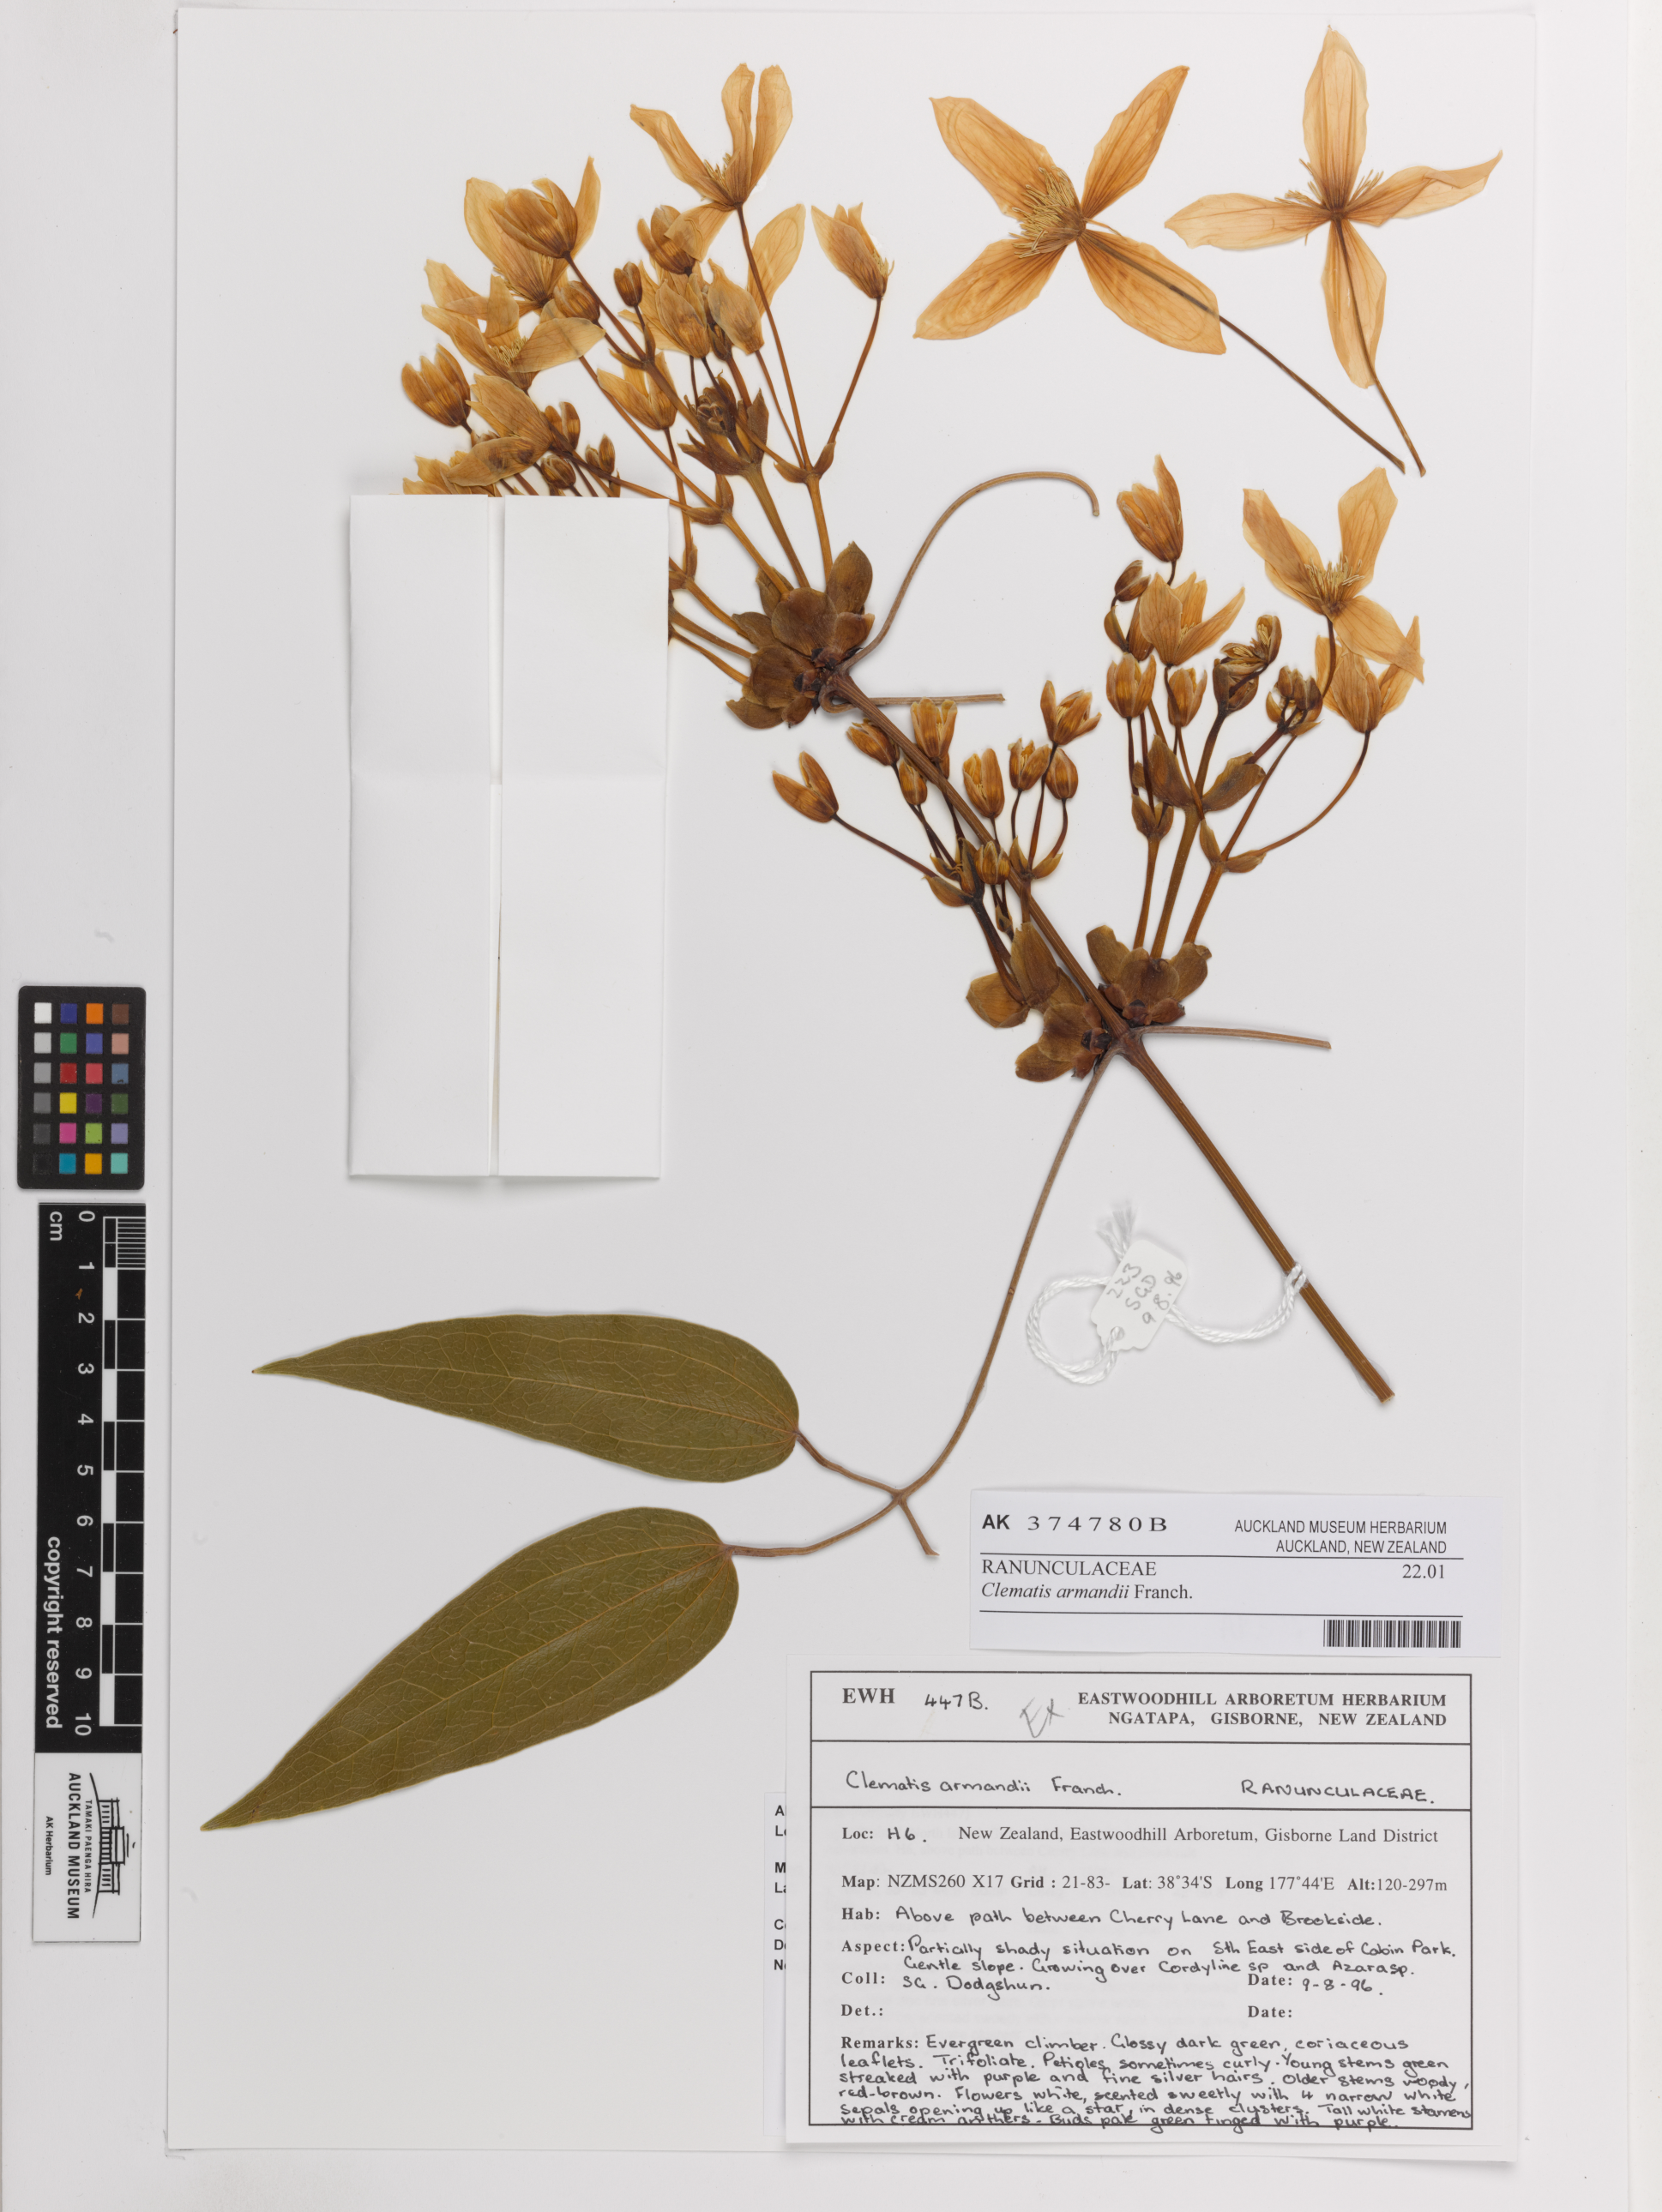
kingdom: Plantae
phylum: Tracheophyta
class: Magnoliopsida
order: Ranunculales
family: Ranunculaceae
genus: Clematis
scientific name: Clematis armandii
